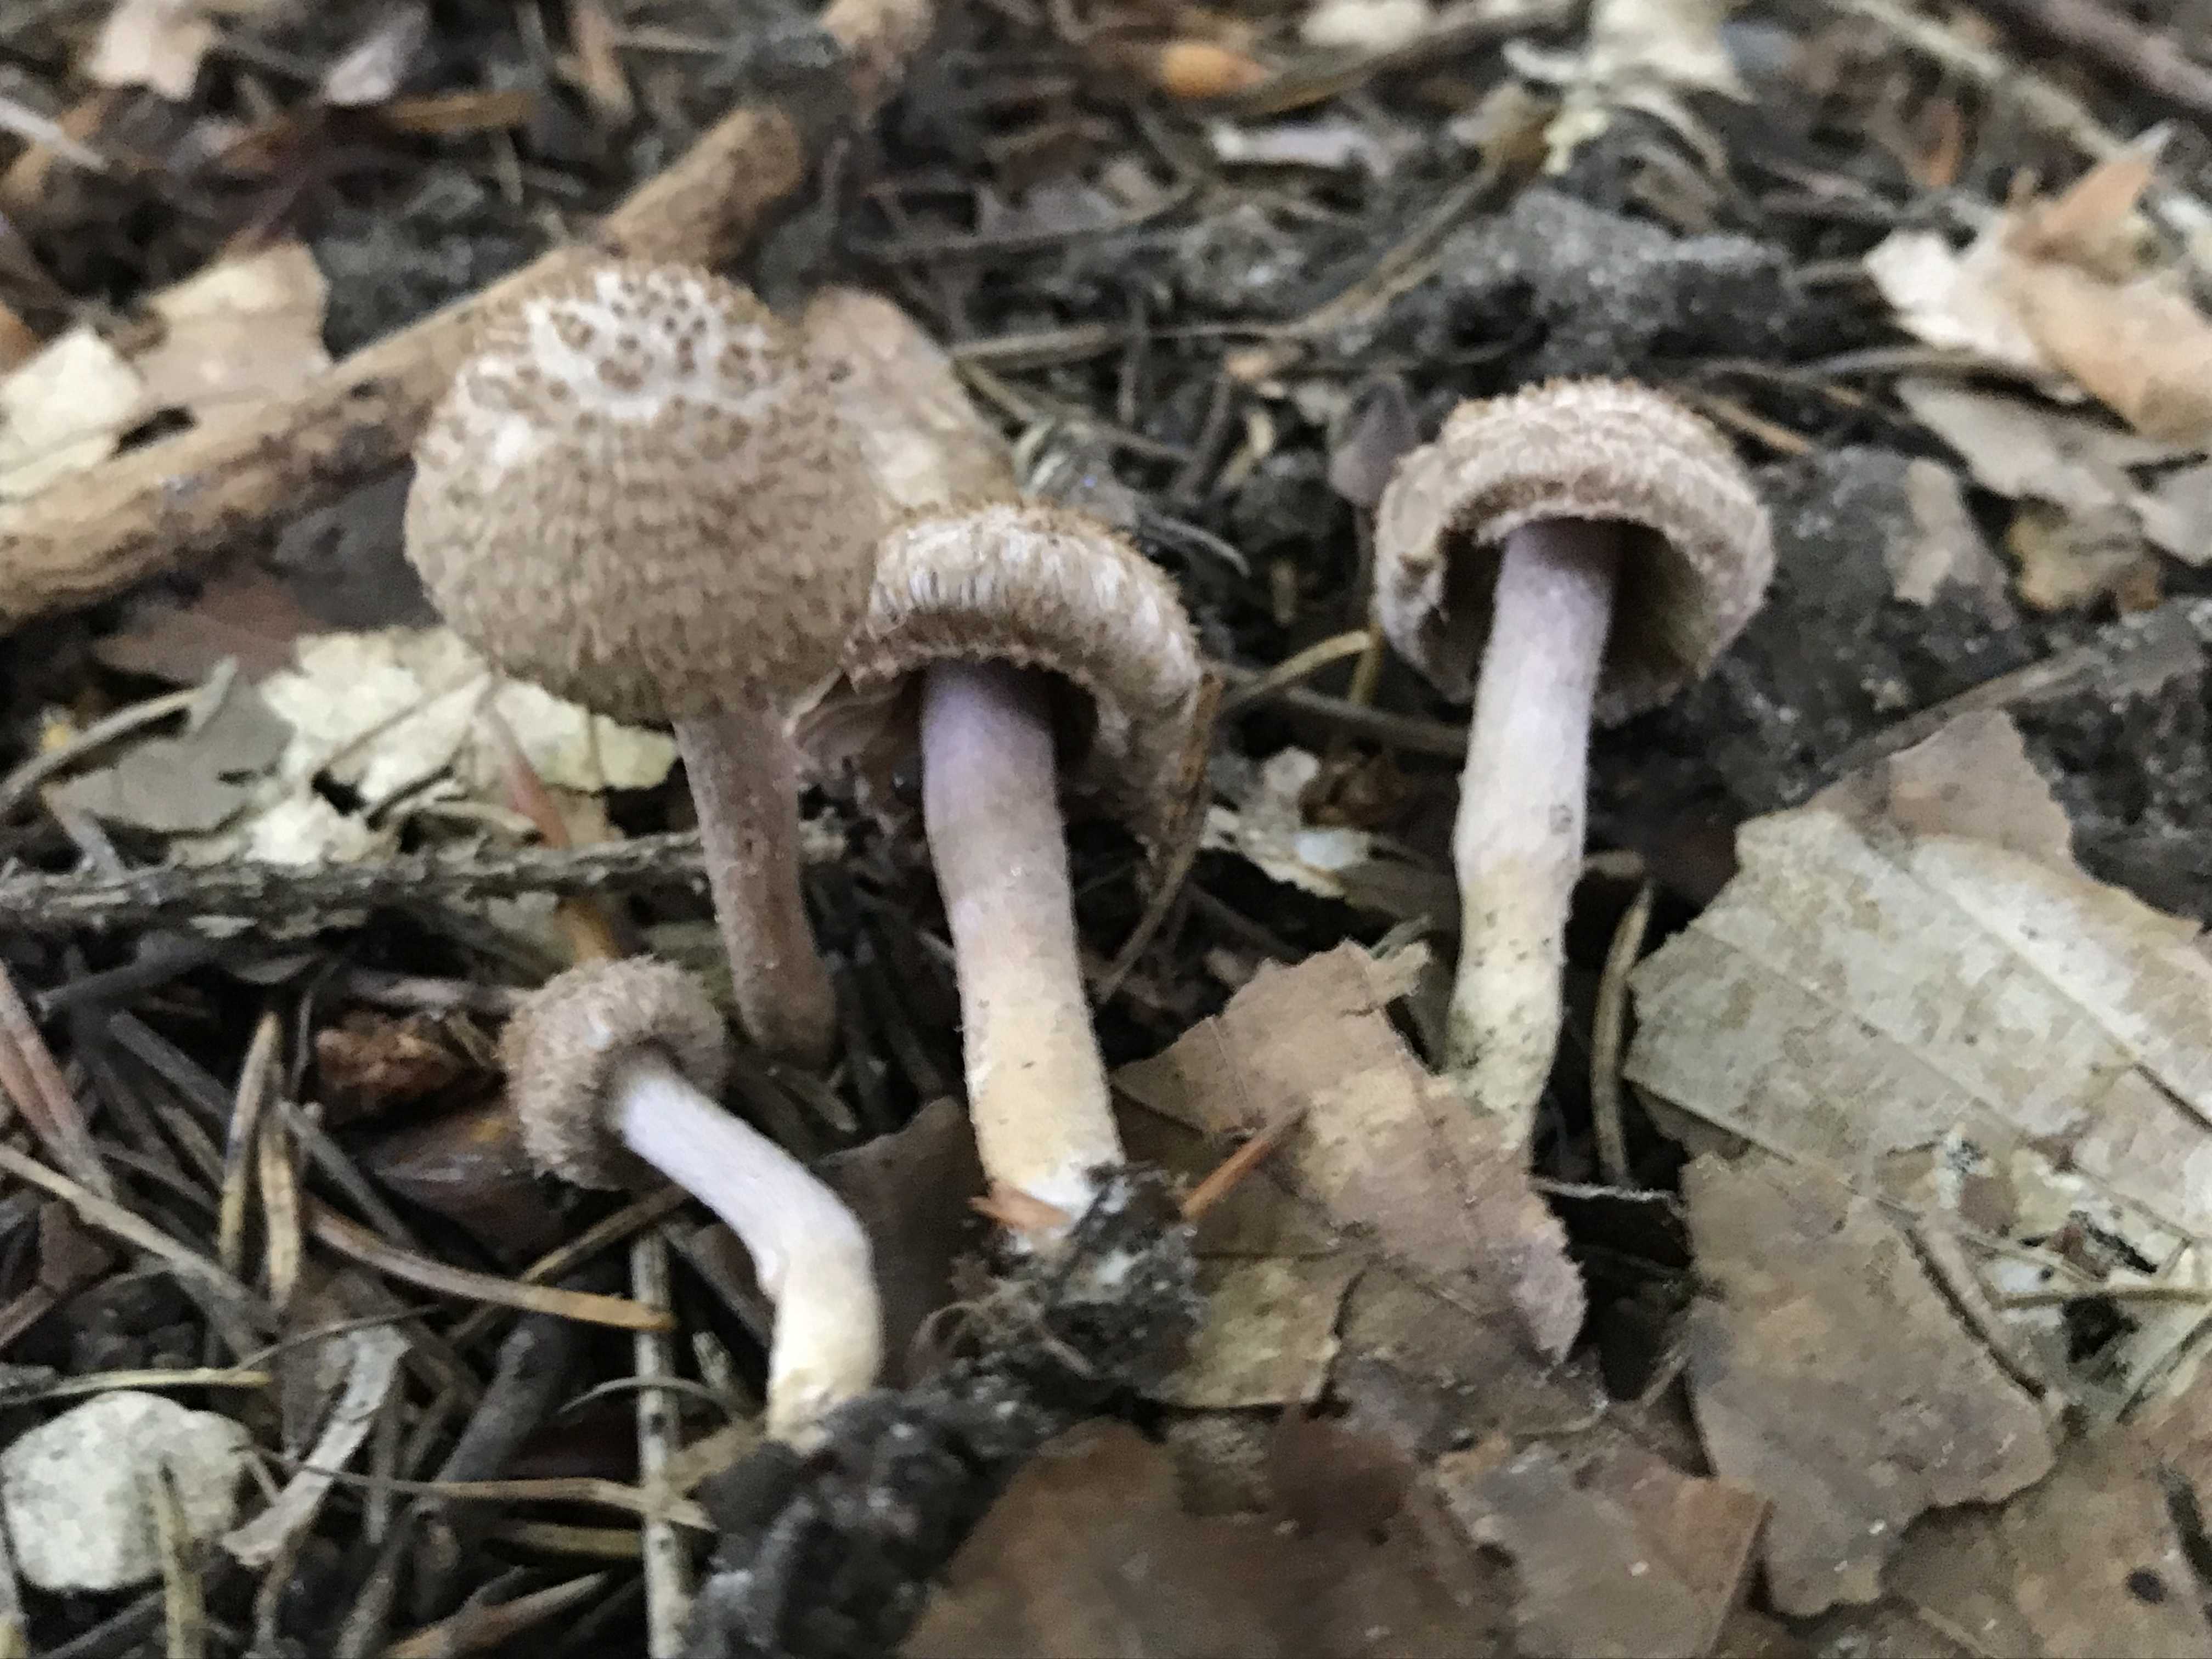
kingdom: Fungi
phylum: Basidiomycota
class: Agaricomycetes
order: Agaricales
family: Inocybaceae
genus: Inocybe
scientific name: Inocybe cincinnata
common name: lillabladet trævlhat
